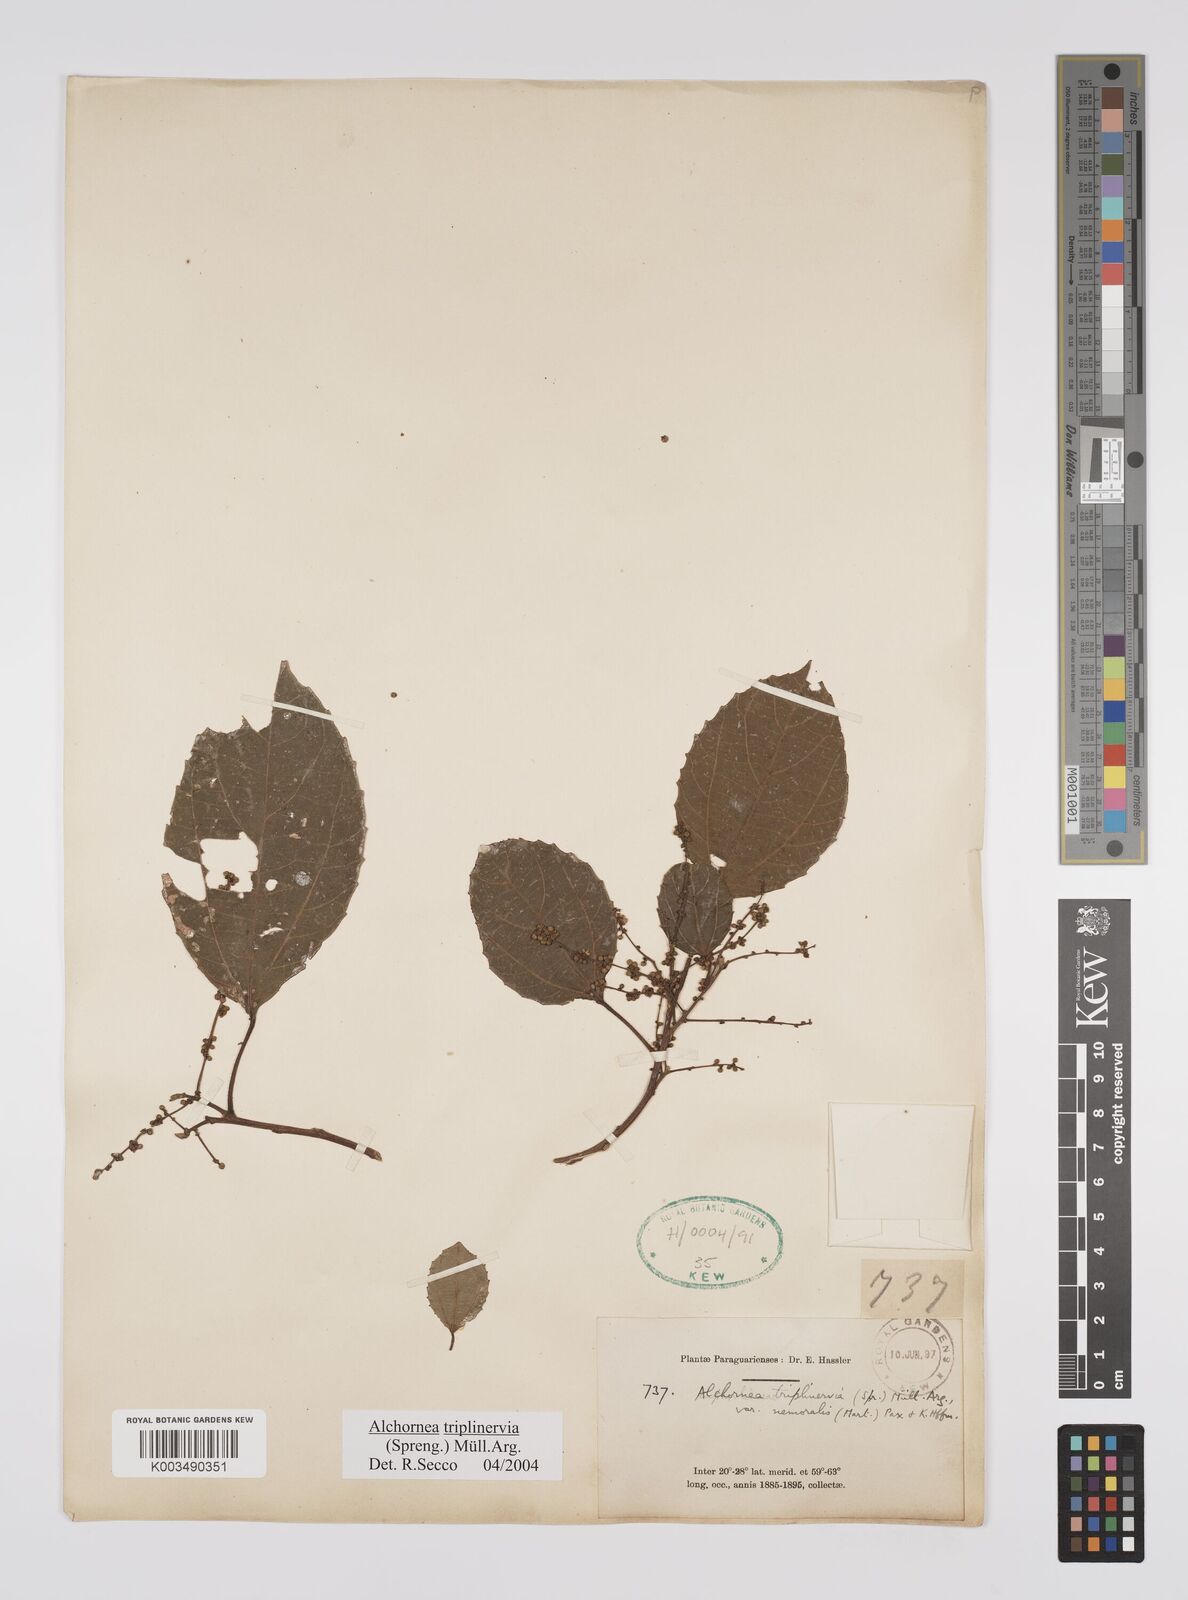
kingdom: Plantae
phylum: Tracheophyta
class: Magnoliopsida
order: Malpighiales
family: Euphorbiaceae
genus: Alchornea
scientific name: Alchornea triplinervia
